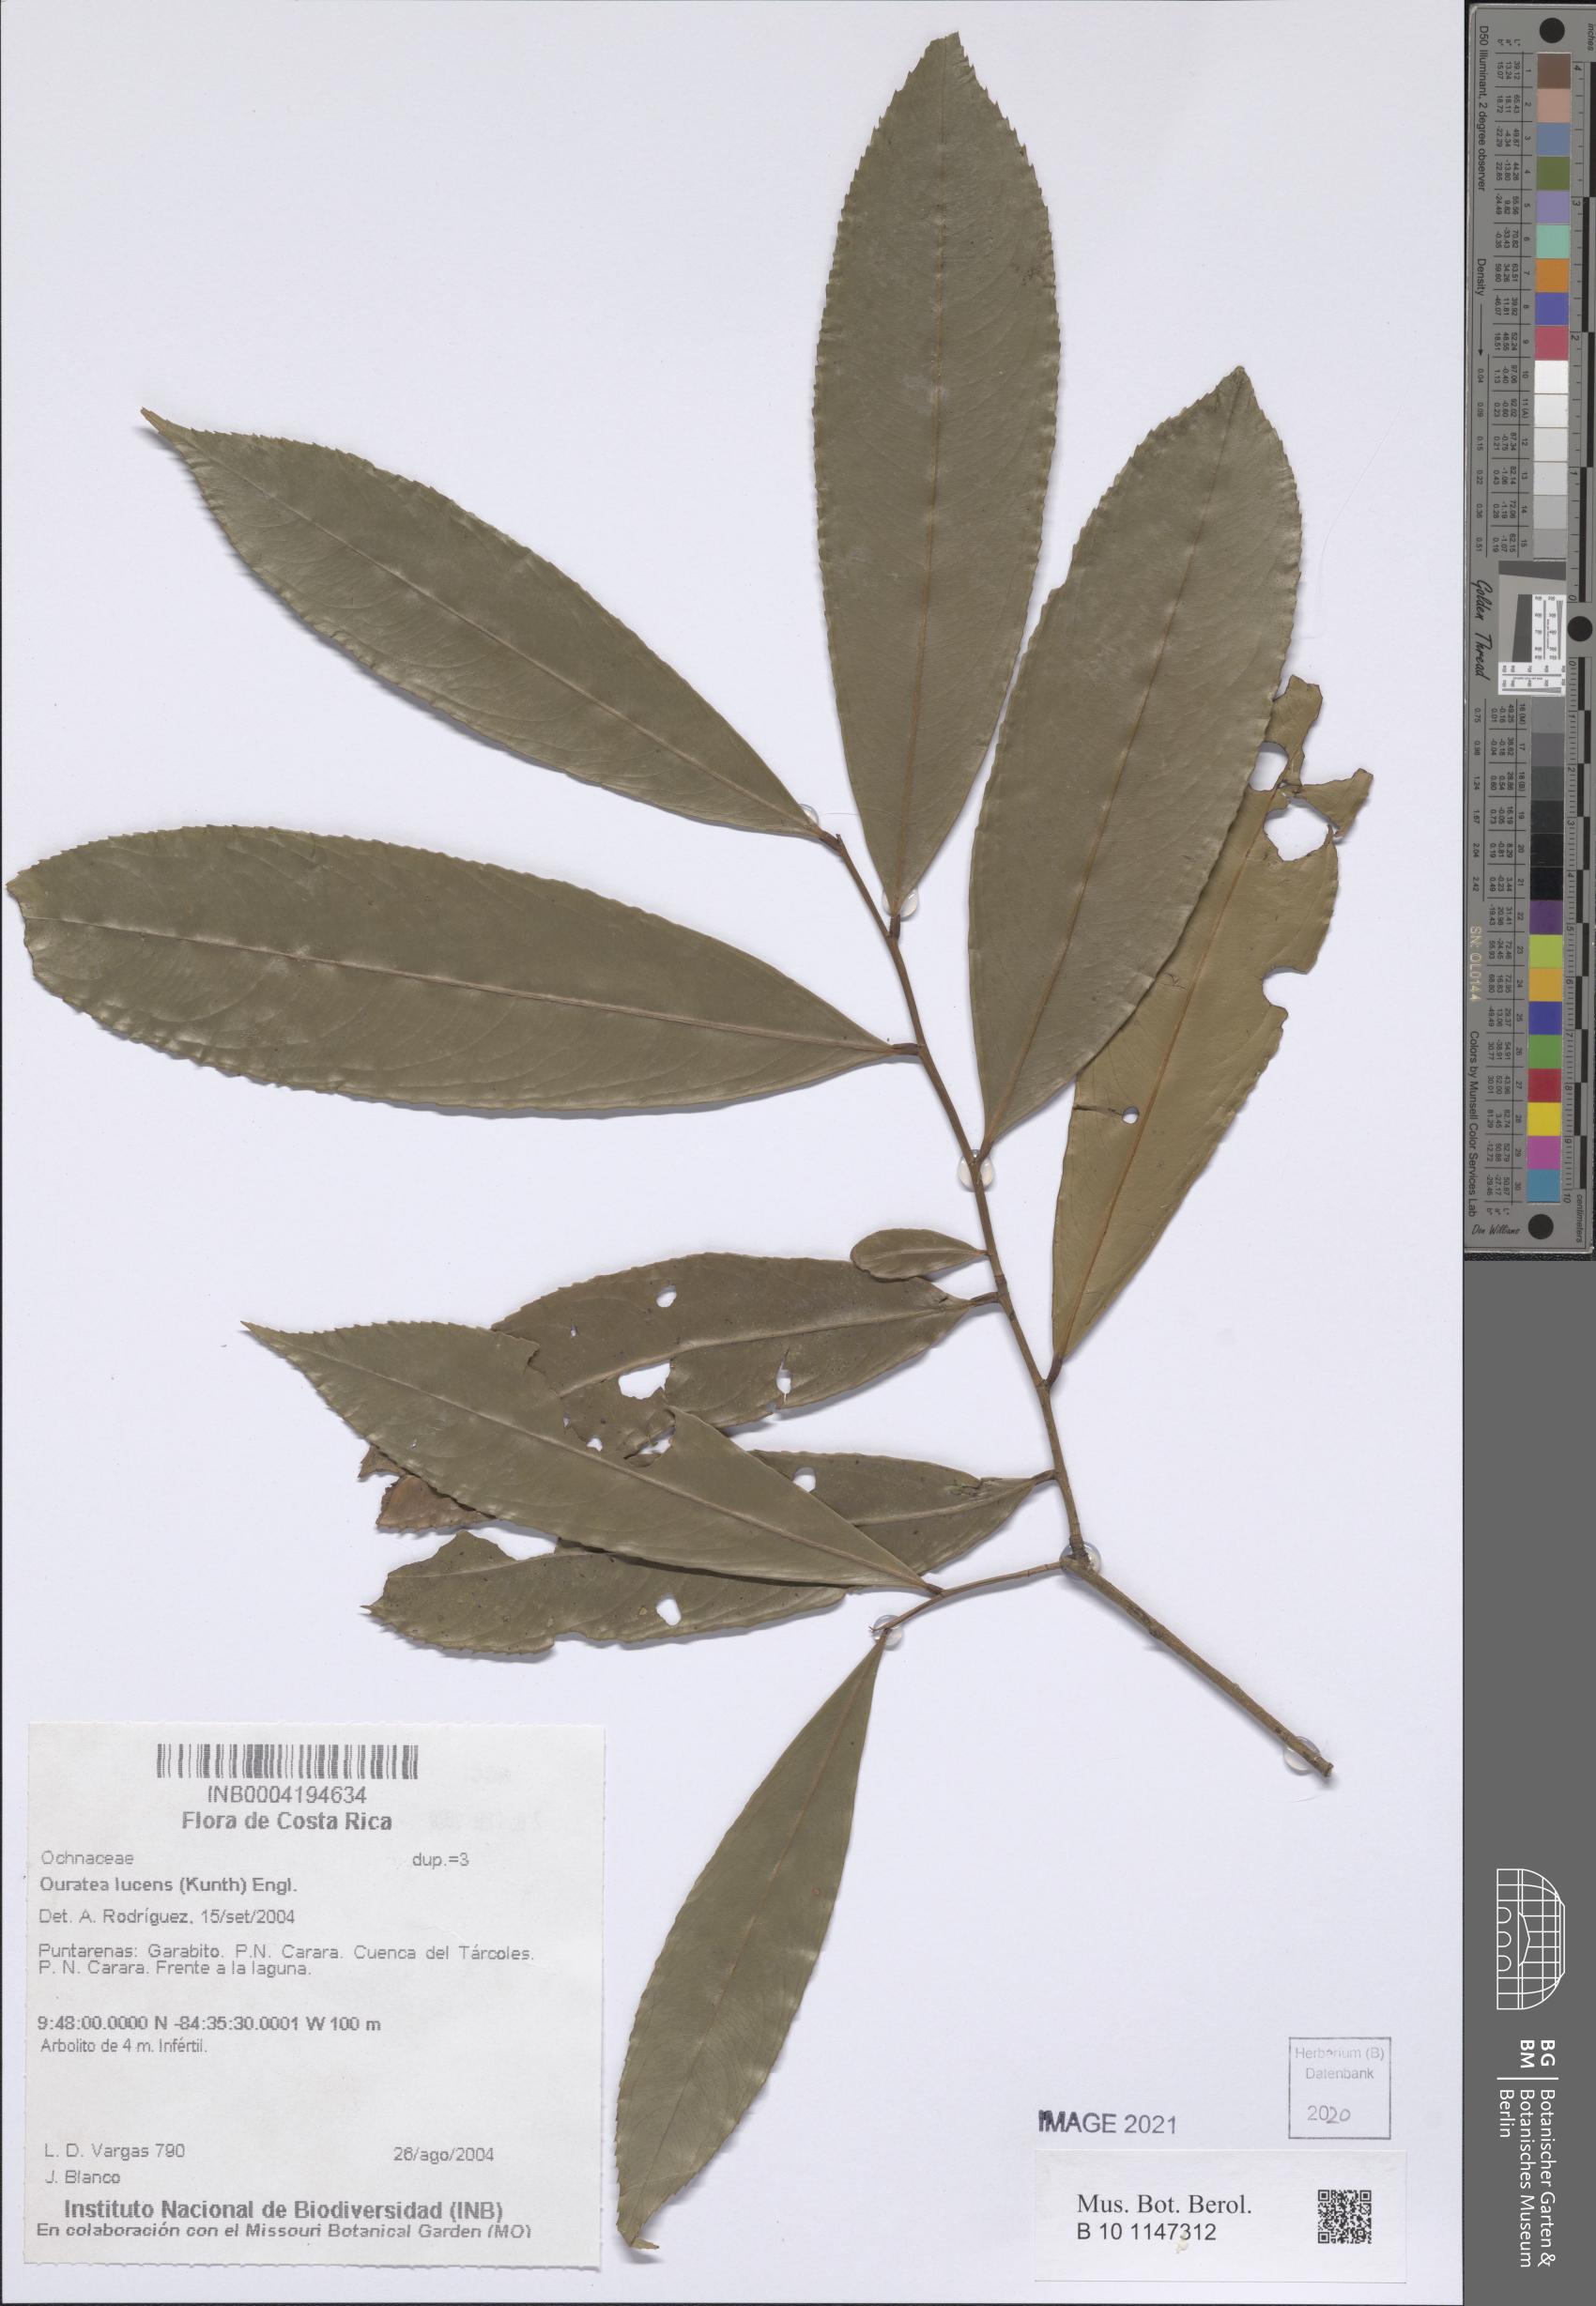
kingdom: Plantae
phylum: Tracheophyta
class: Magnoliopsida
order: Malpighiales
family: Ochnaceae
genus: Ouratea
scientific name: Ouratea lucens
